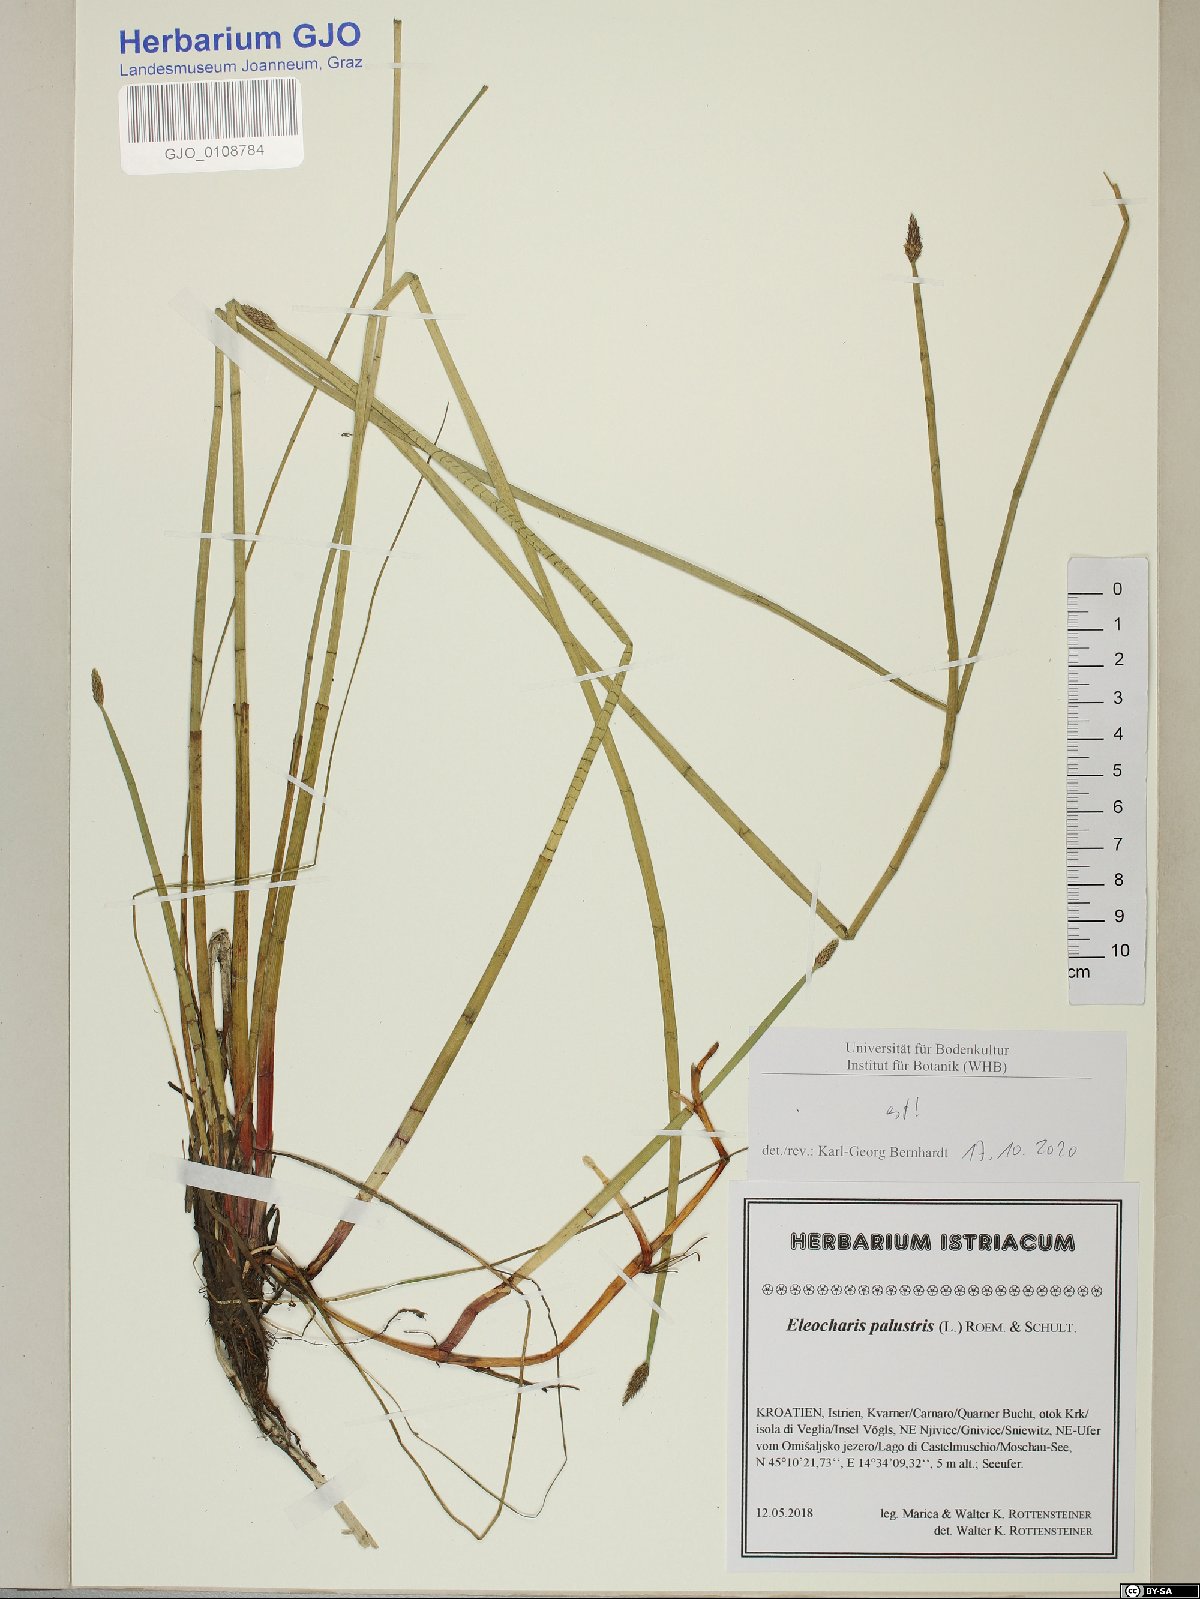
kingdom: Plantae
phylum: Tracheophyta
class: Liliopsida
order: Poales
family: Cyperaceae
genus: Eleocharis
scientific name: Eleocharis palustris
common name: Common spike-rush
